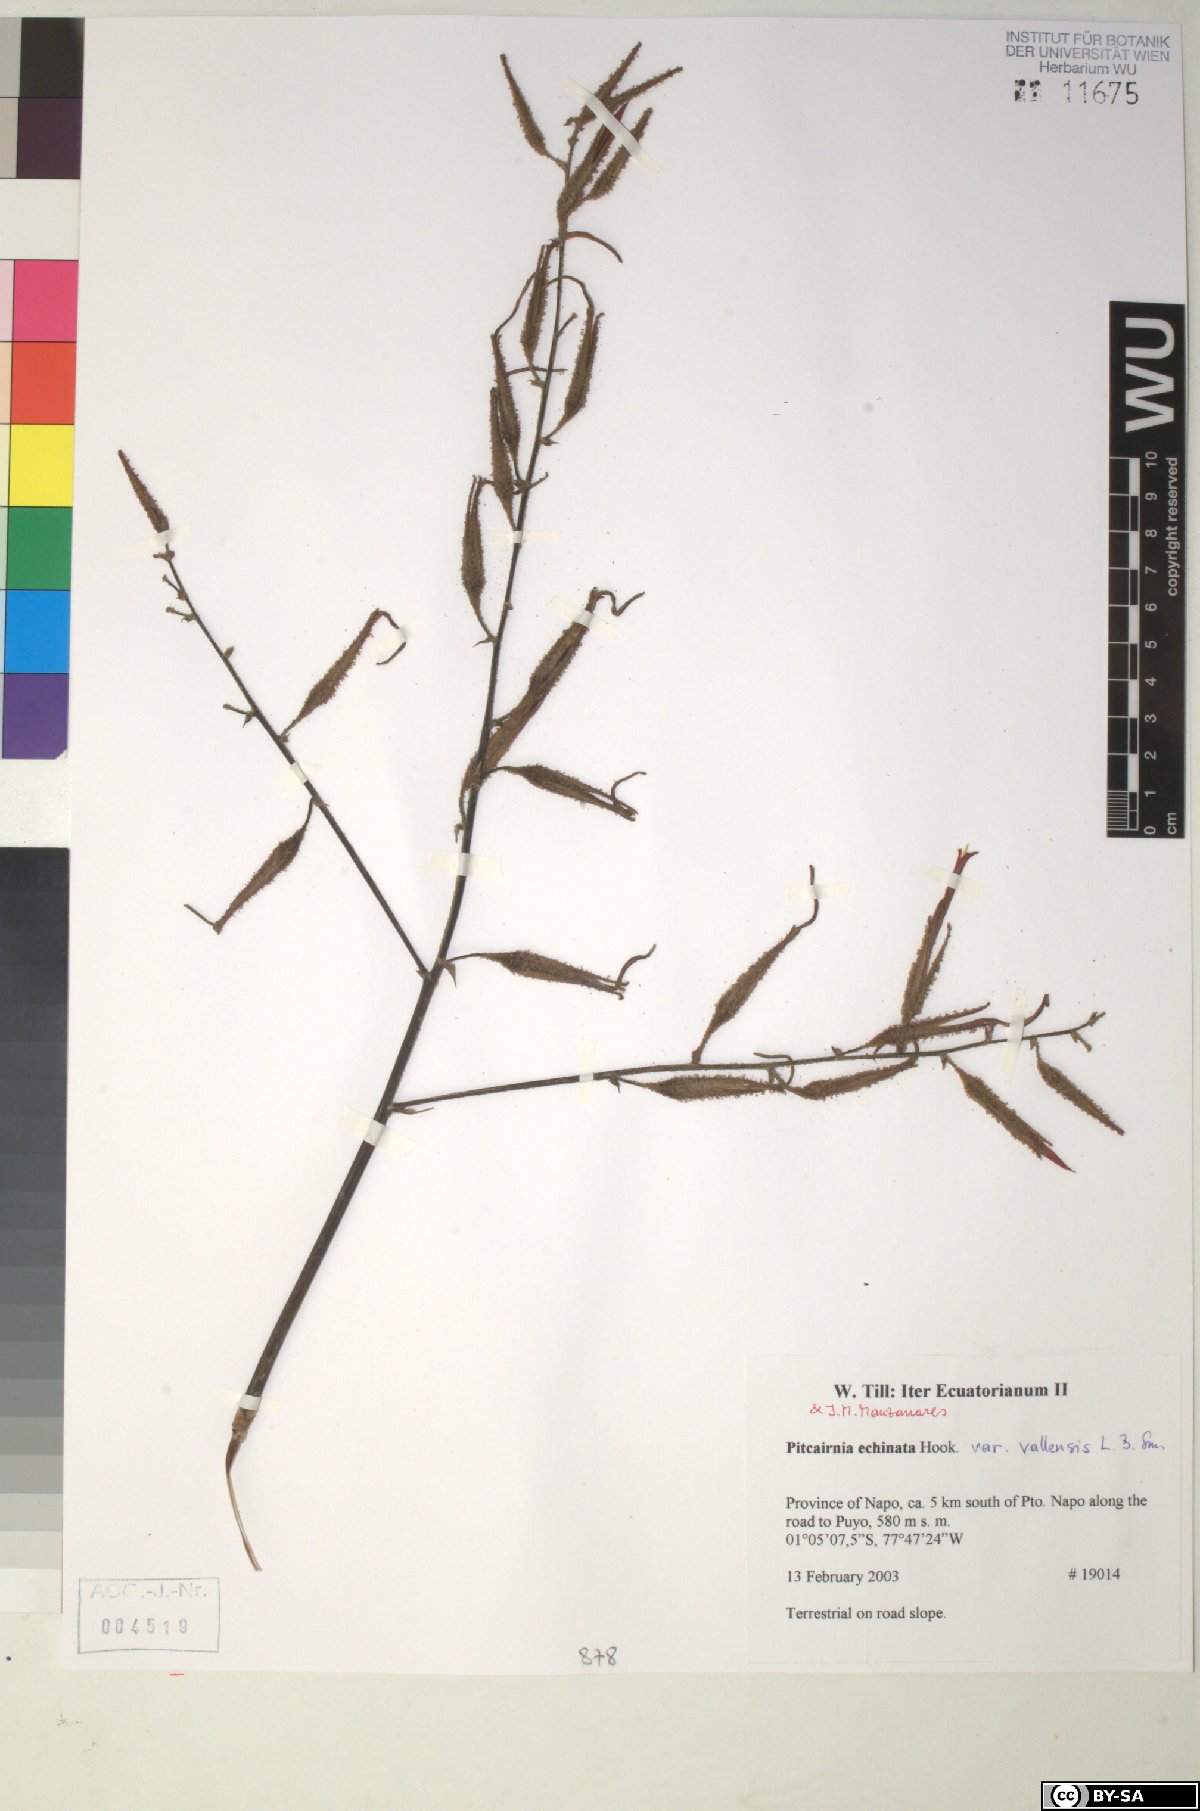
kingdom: Plantae
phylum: Tracheophyta
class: Liliopsida
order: Poales
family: Bromeliaceae
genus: Pitcairnia
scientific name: Pitcairnia echinata
